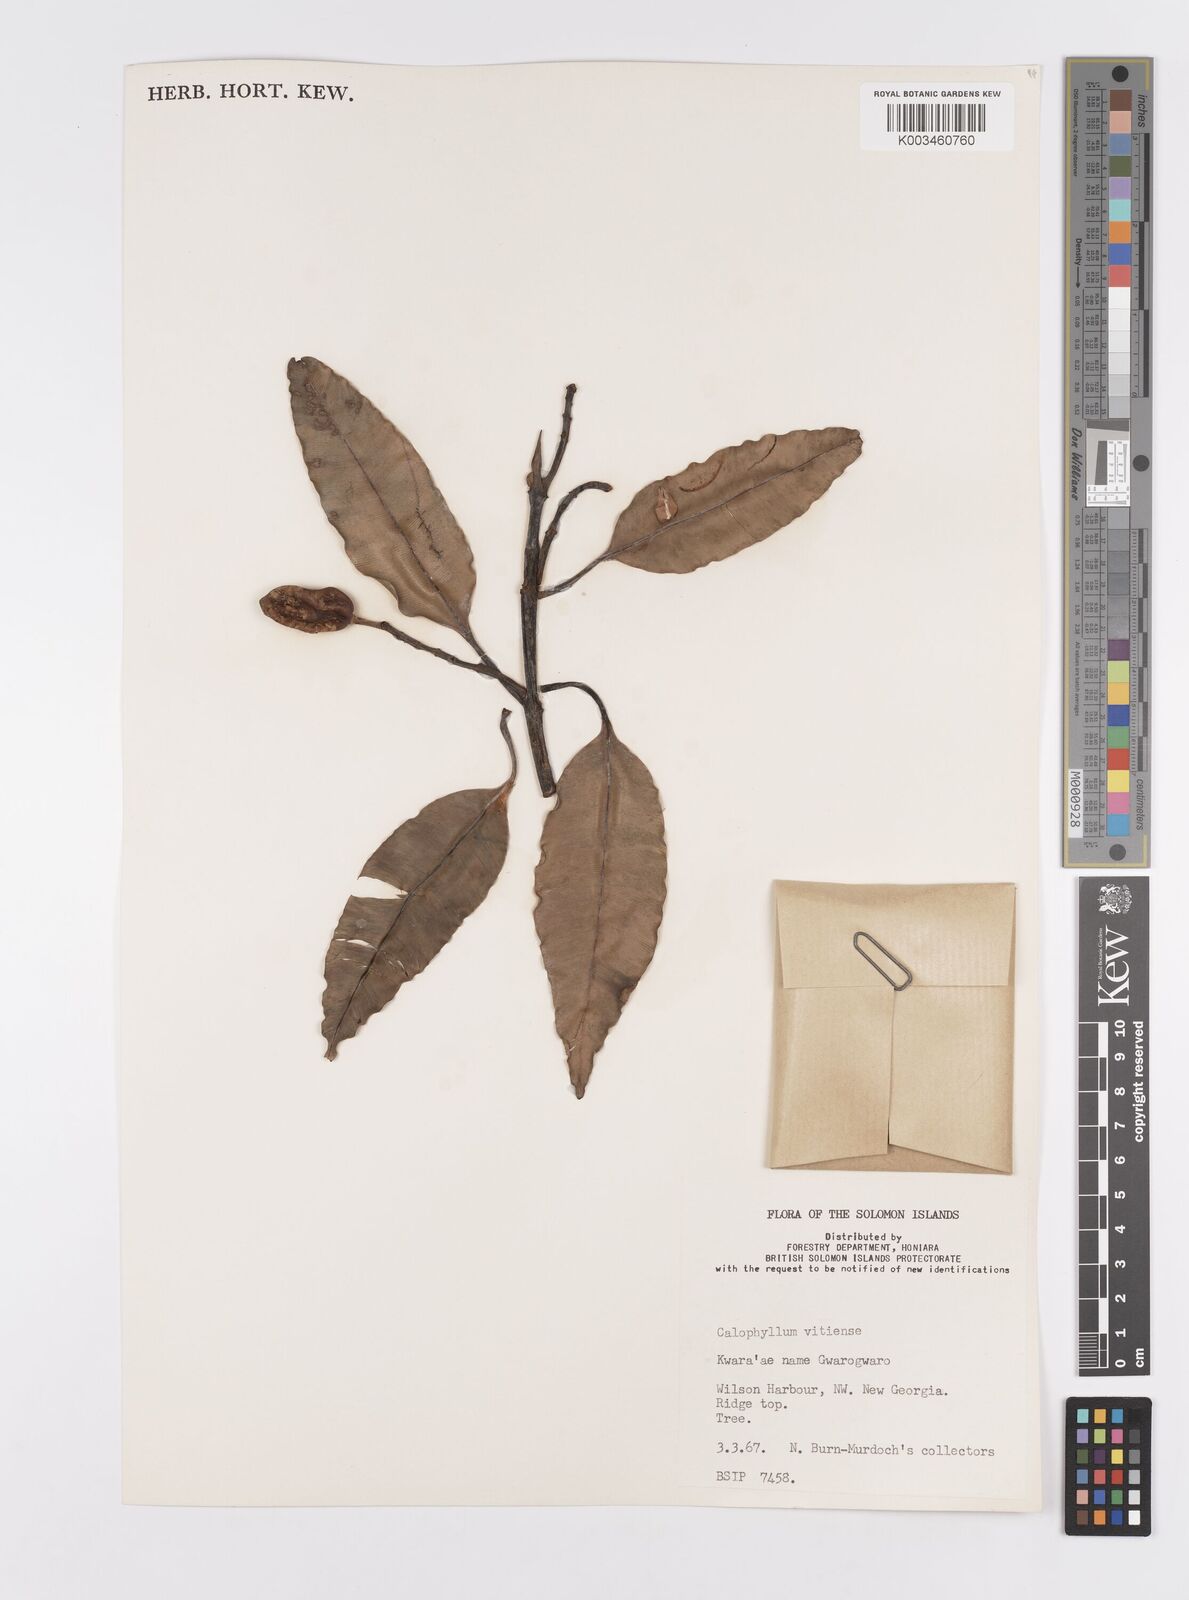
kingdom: Plantae
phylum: Tracheophyta
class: Magnoliopsida
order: Malpighiales
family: Calophyllaceae
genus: Calophyllum
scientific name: Calophyllum vitiense
